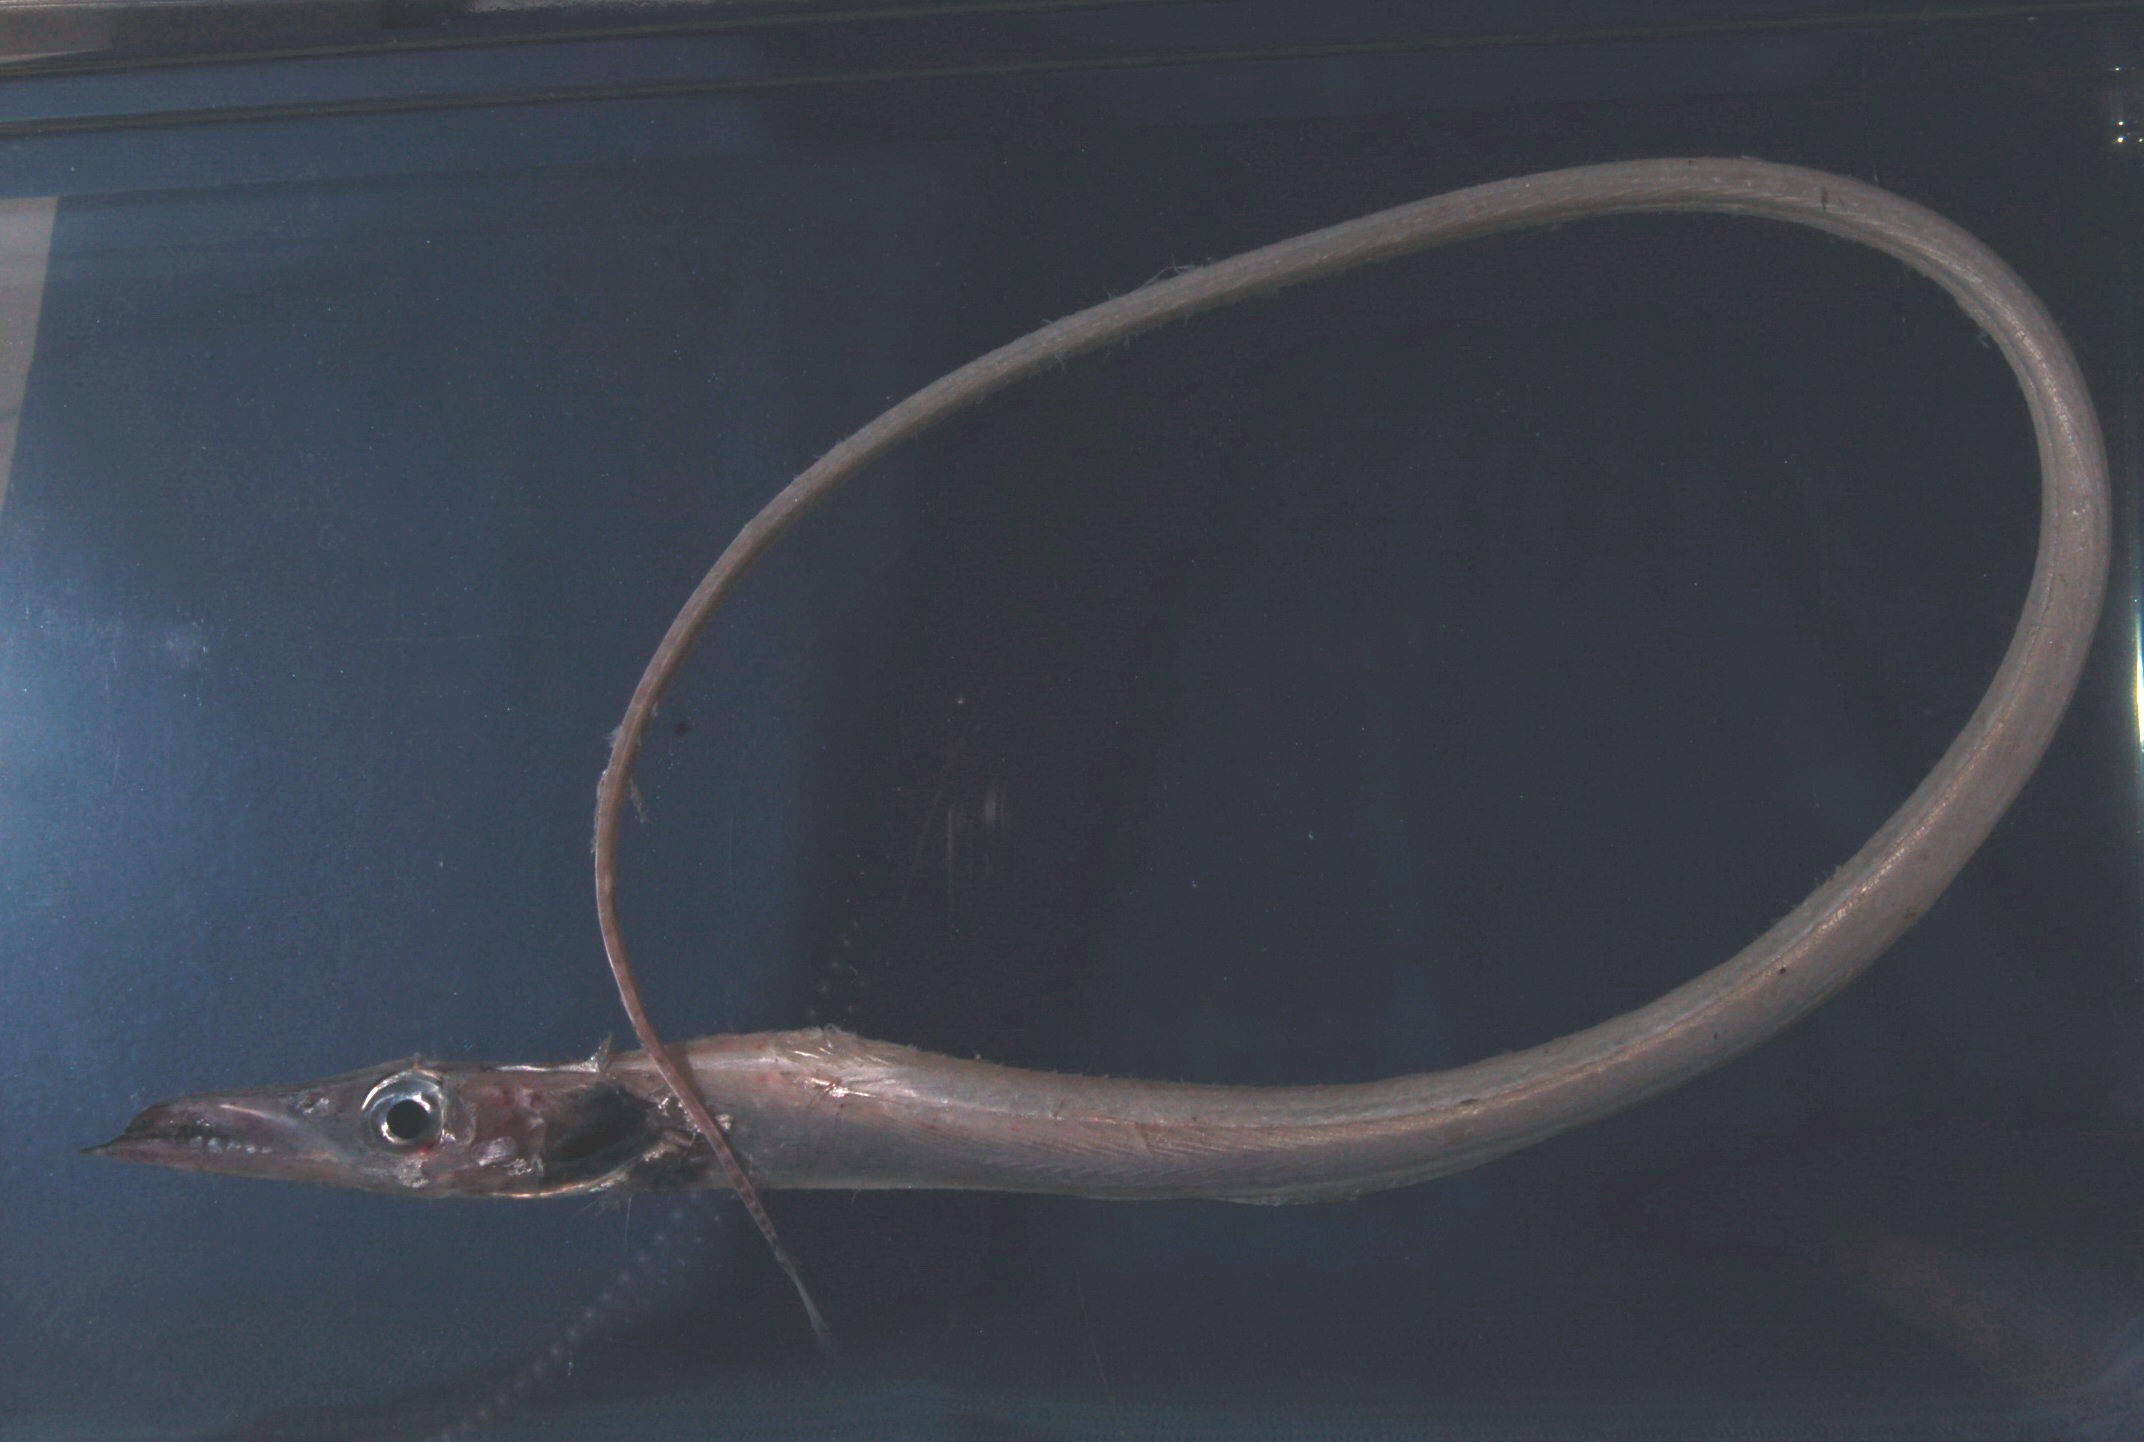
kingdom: Animalia
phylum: Chordata
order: Perciformes
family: Trichiuridae
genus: Benthodesmus
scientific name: Benthodesmus elongatus
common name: Frostfish
